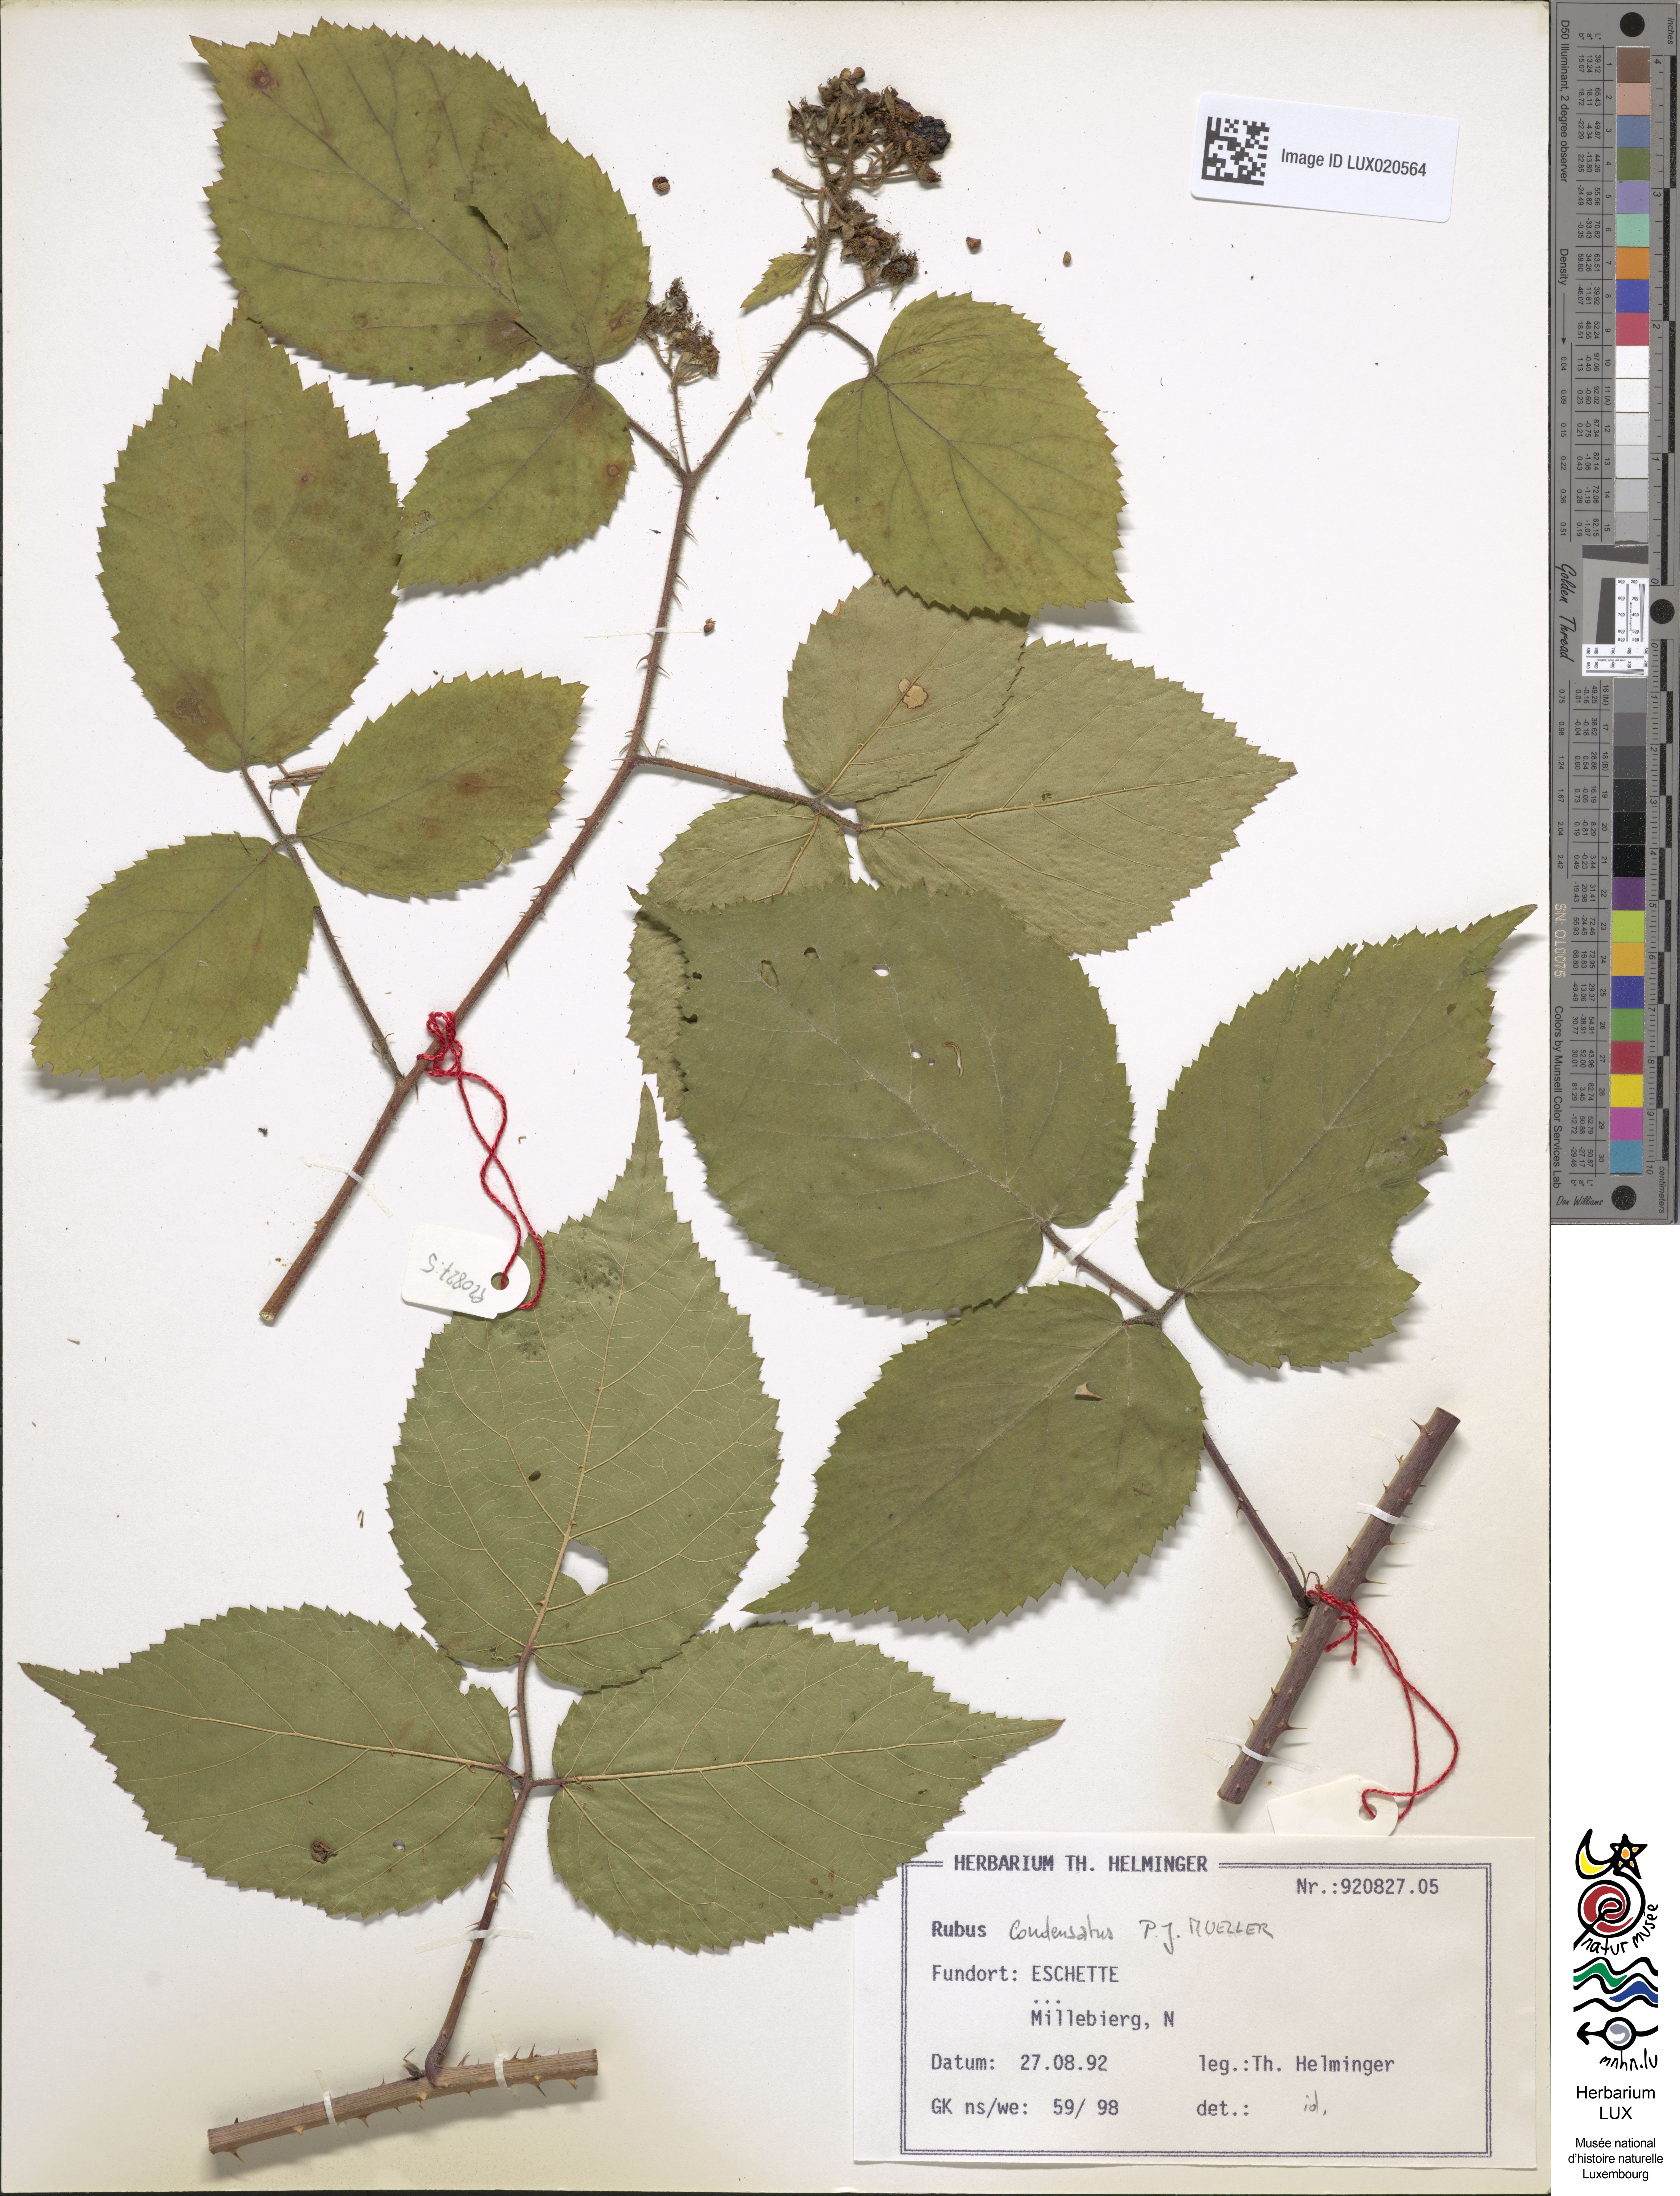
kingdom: Plantae
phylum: Tracheophyta
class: Magnoliopsida
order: Rosales
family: Rosaceae
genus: Rubus
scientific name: Rubus condensatus
